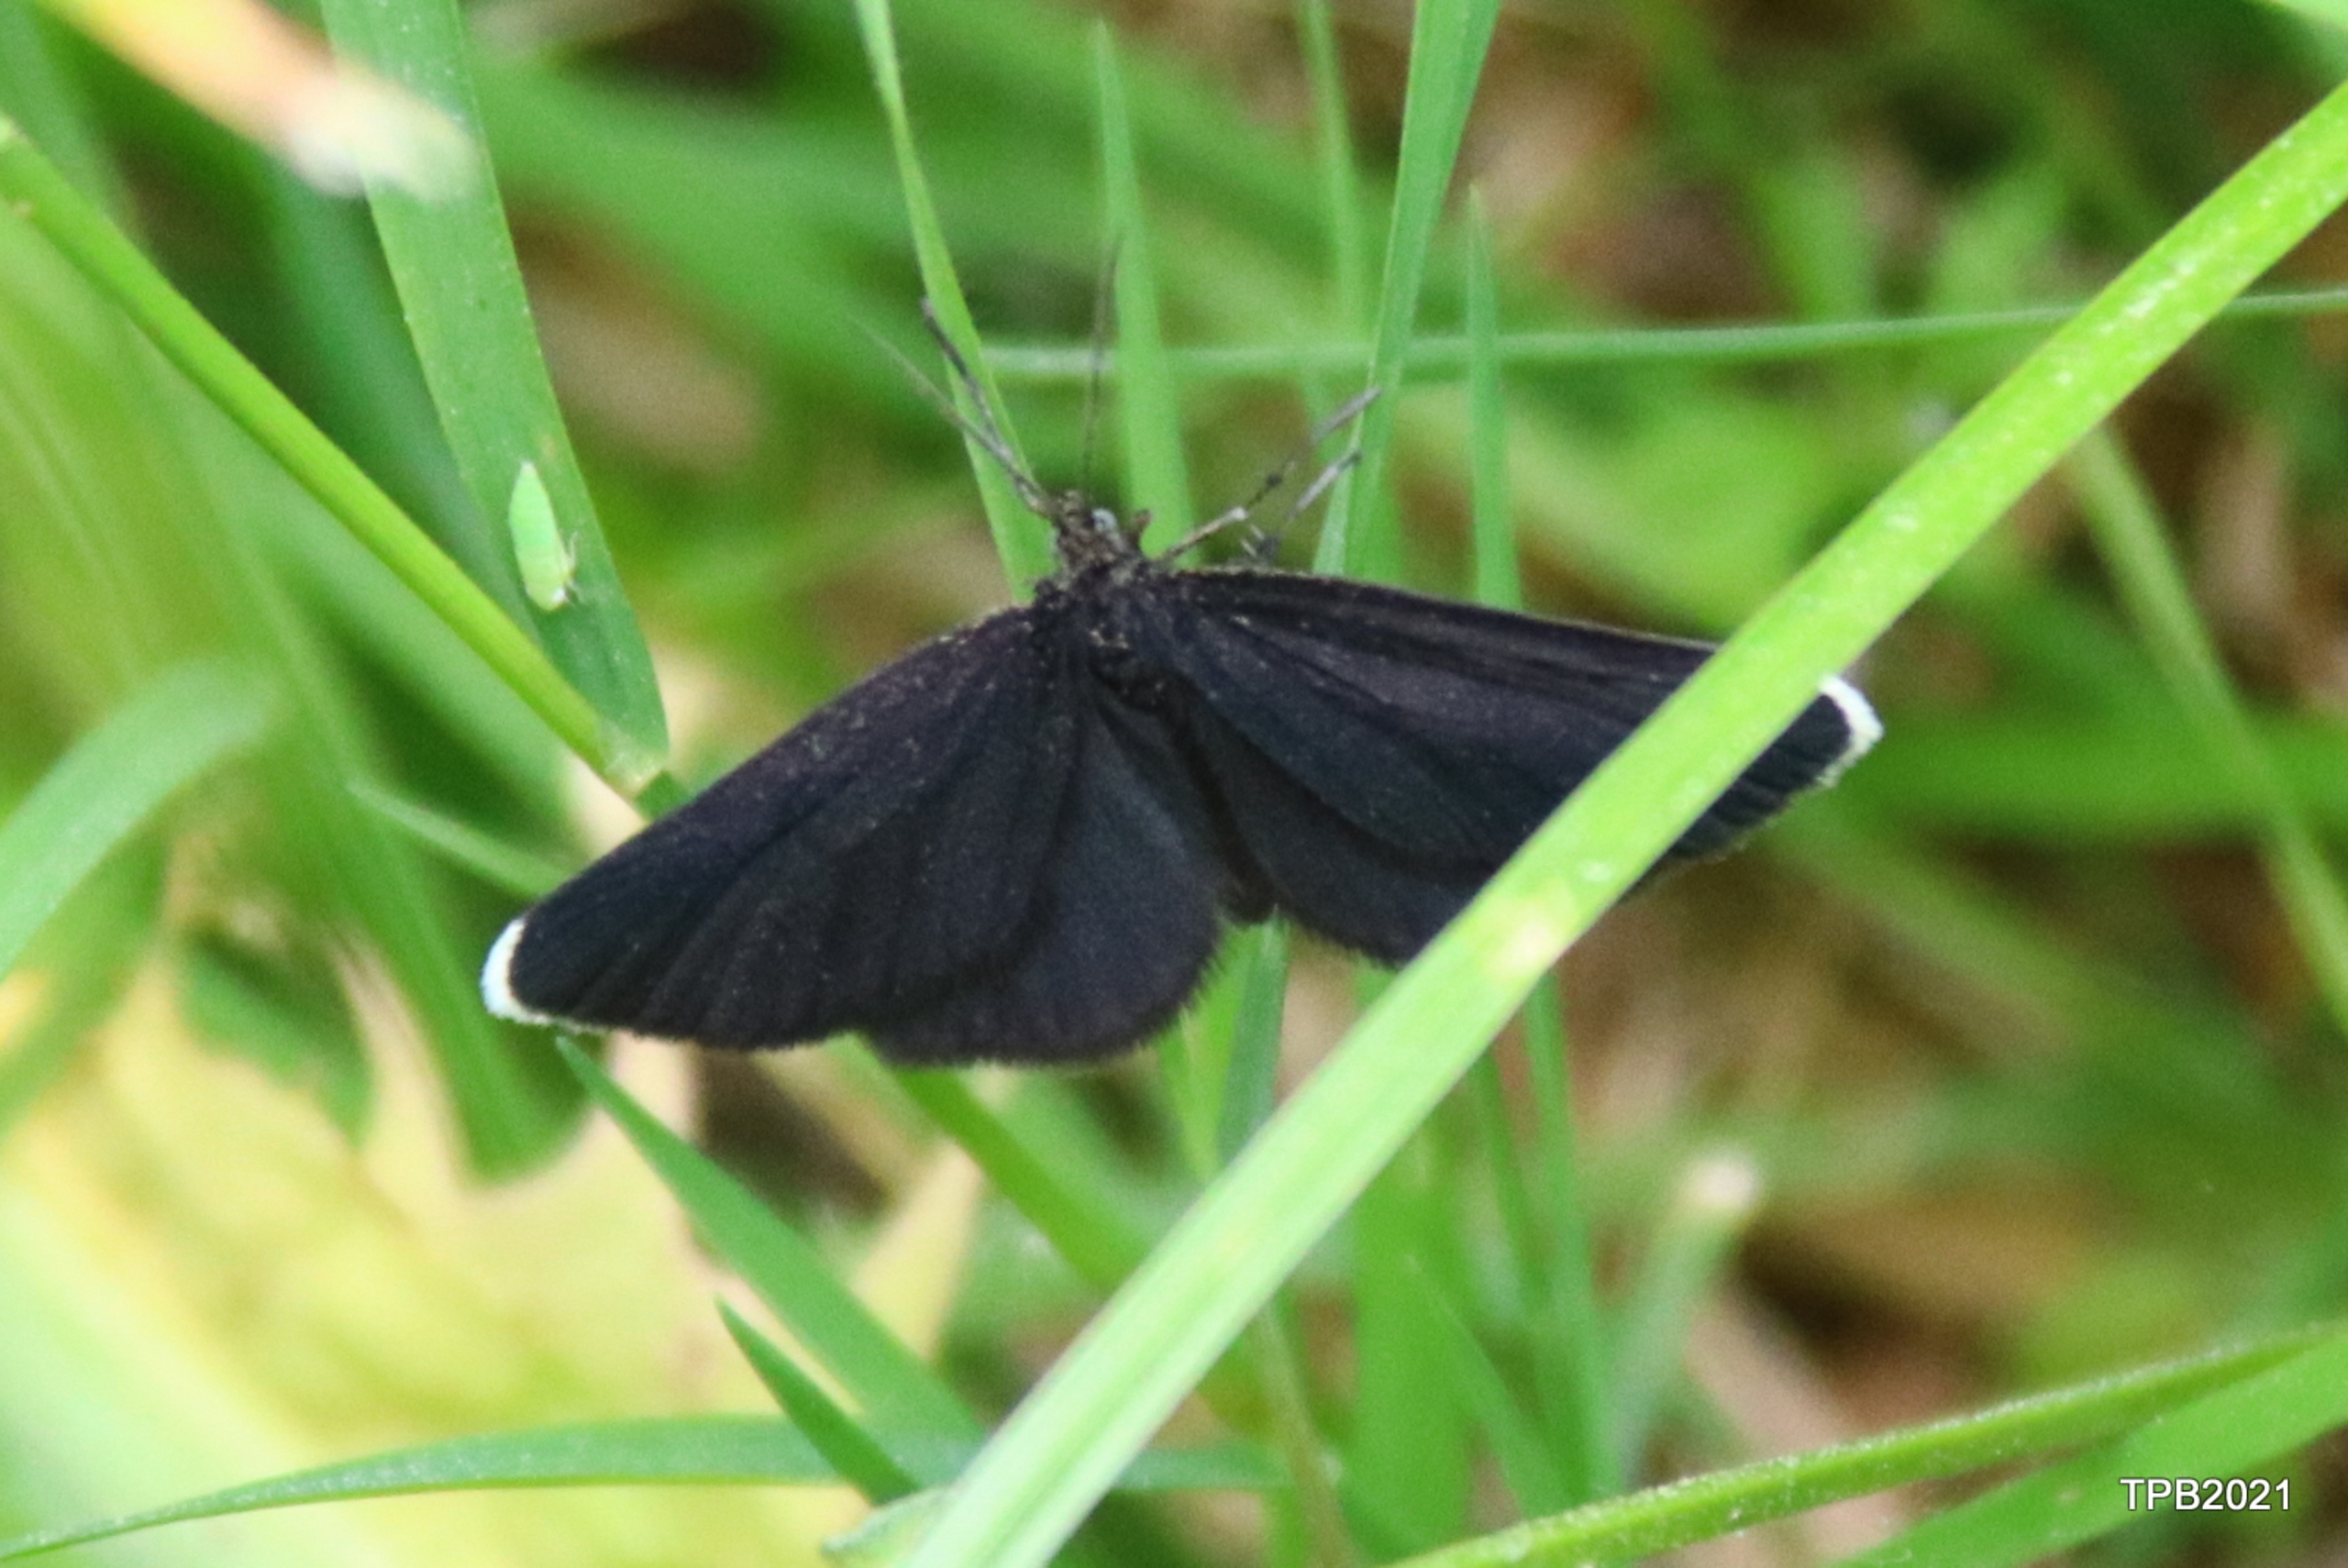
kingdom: Animalia
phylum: Arthropoda
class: Insecta
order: Lepidoptera
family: Geometridae
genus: Odezia
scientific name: Odezia atrata
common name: Sort måler
